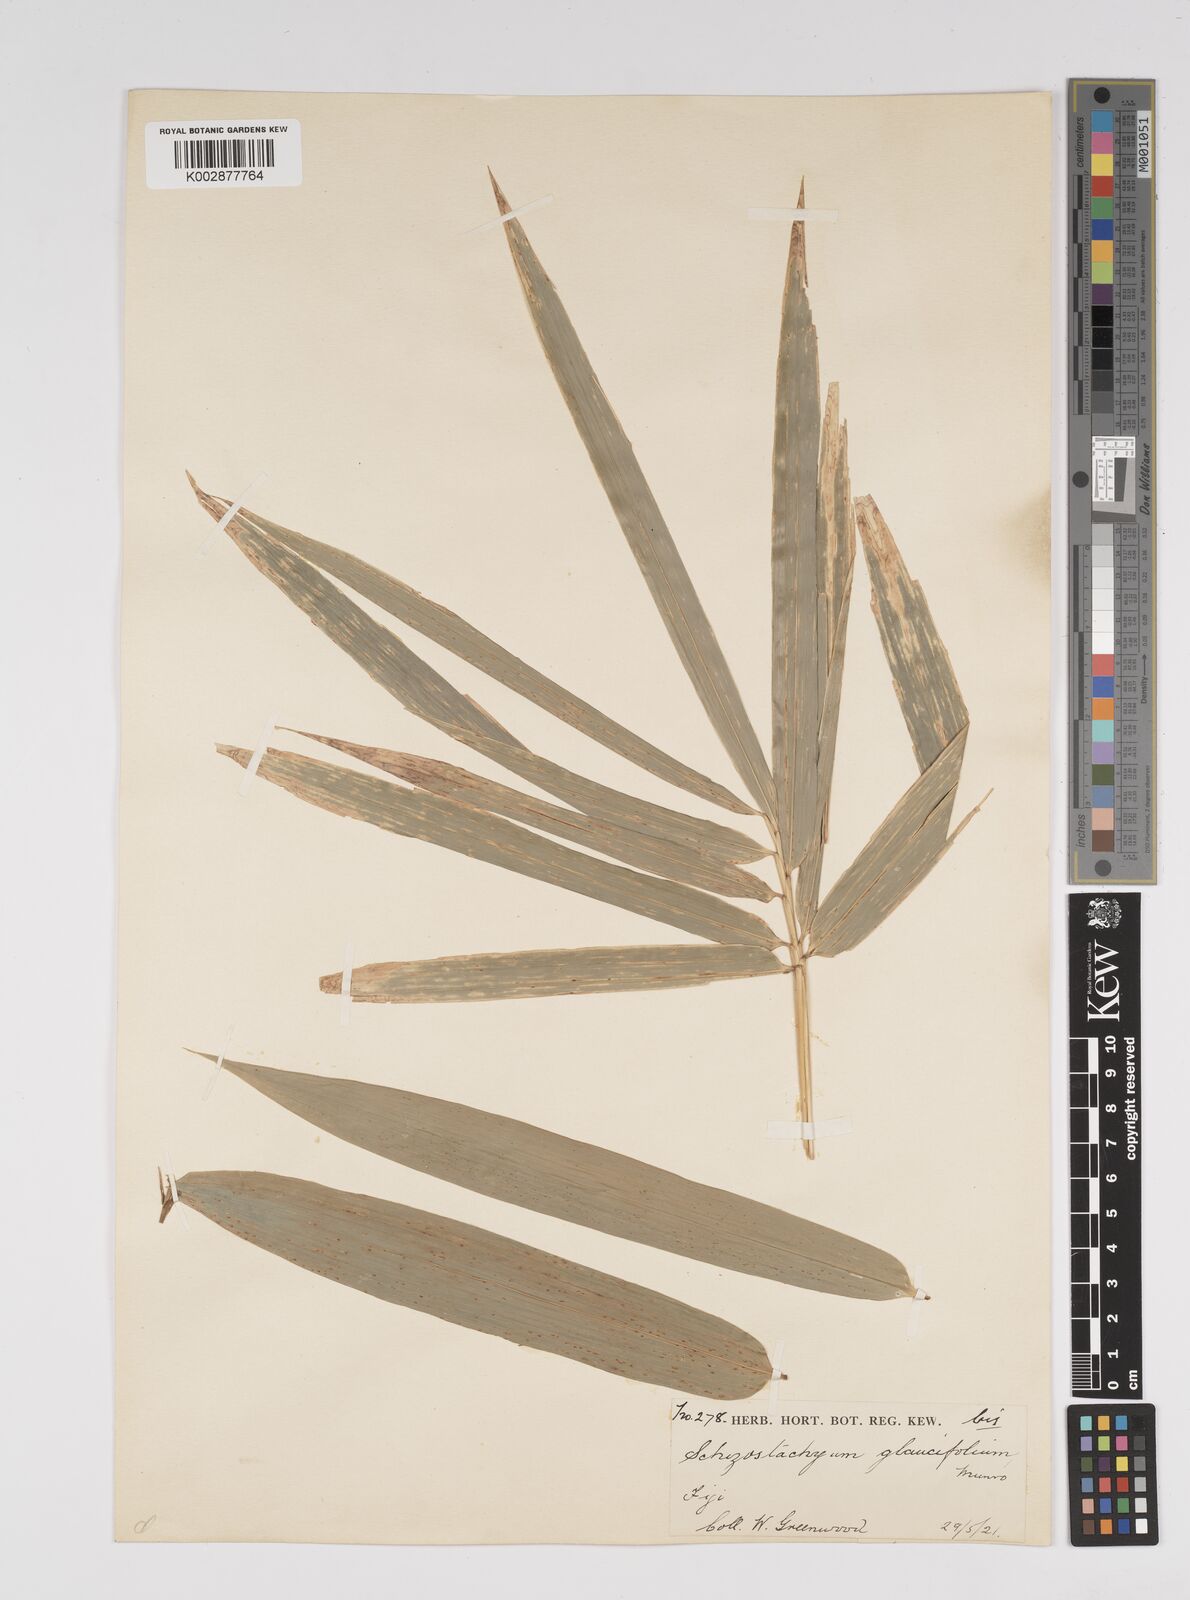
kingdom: Plantae
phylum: Tracheophyta
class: Liliopsida
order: Poales
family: Poaceae
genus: Bambusa
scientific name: Bambusa
